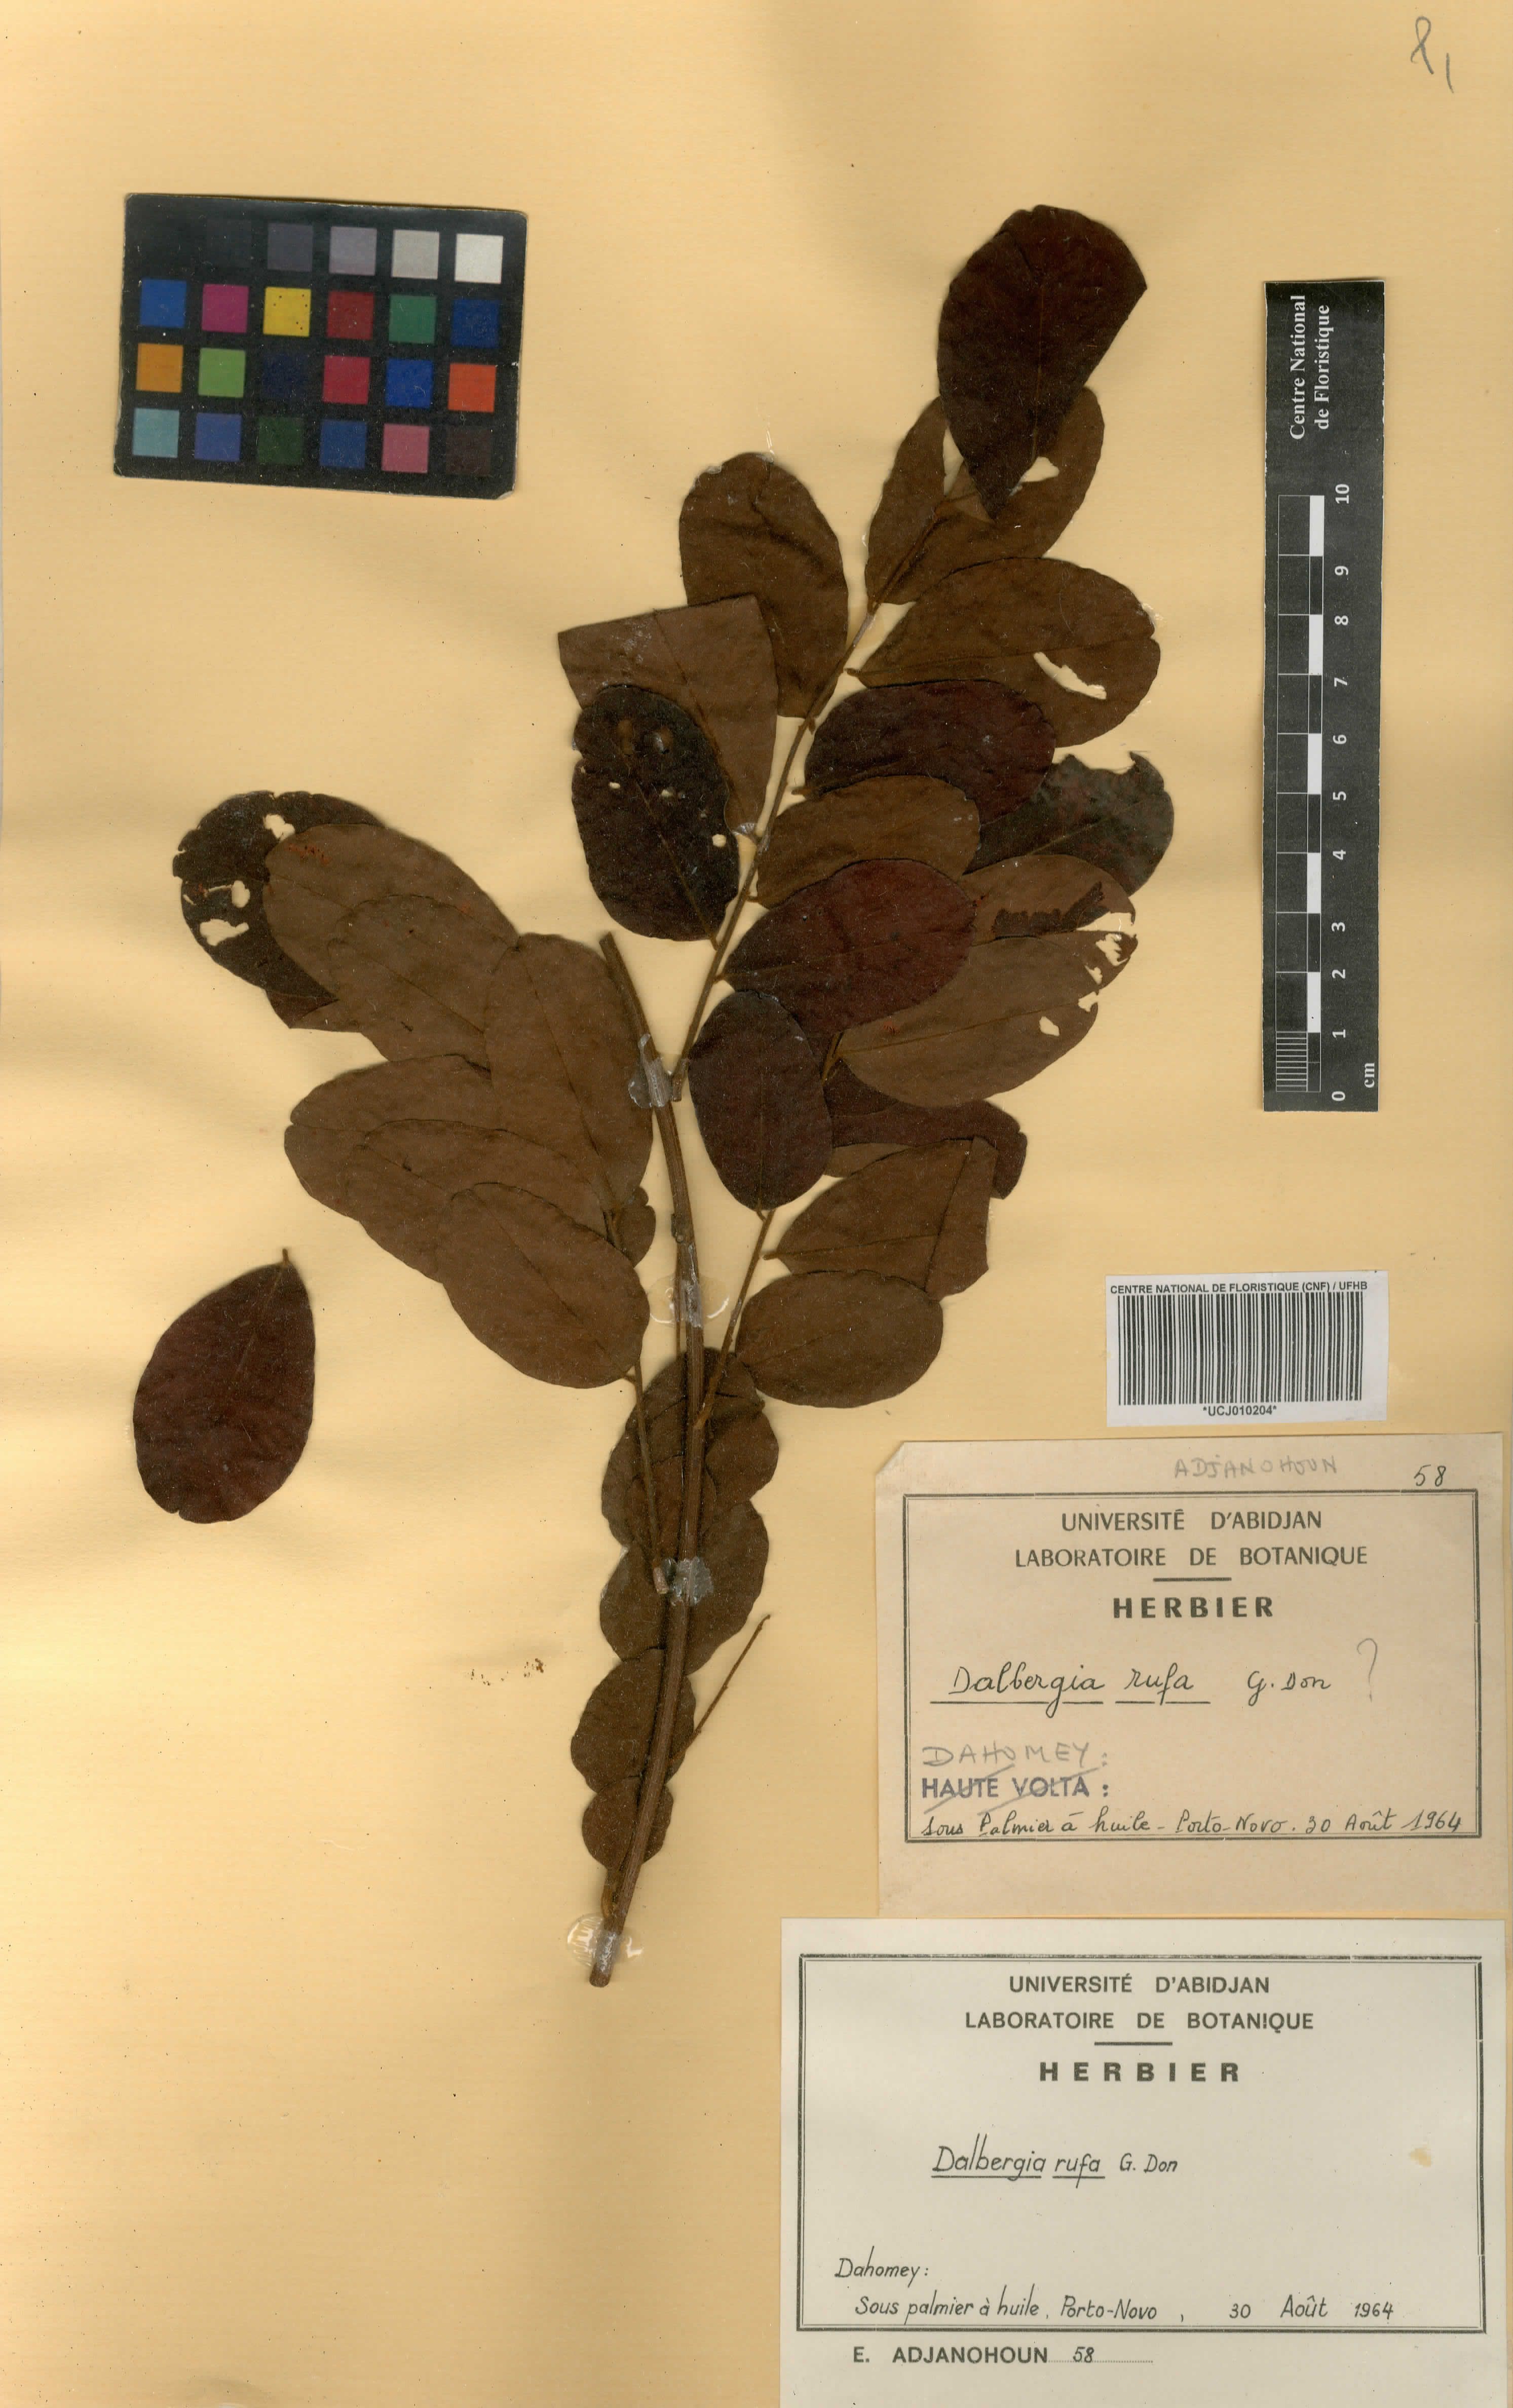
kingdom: Plantae
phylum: Tracheophyta
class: Magnoliopsida
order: Fabales
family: Fabaceae
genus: Dalbergia
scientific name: Dalbergia rufa
